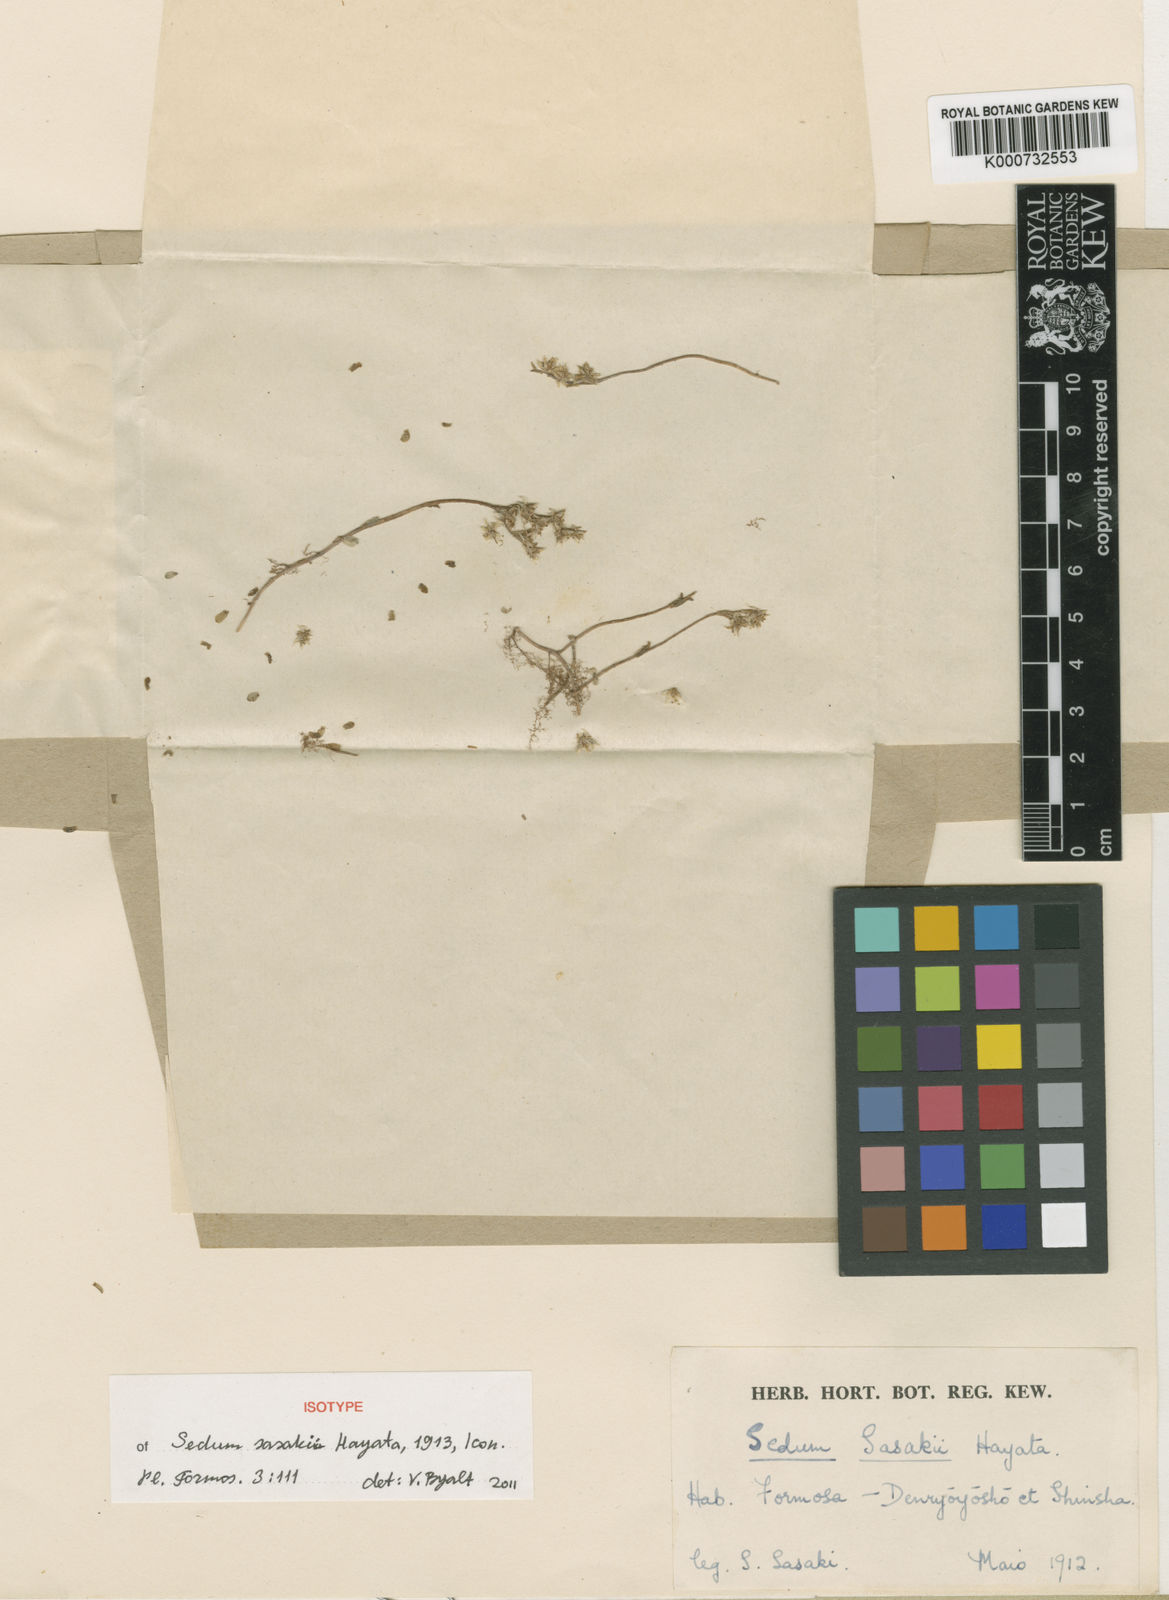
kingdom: Plantae
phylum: Tracheophyta
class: Magnoliopsida
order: Saxifragales
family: Crassulaceae
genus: Sedum
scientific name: Sedum japonicum
